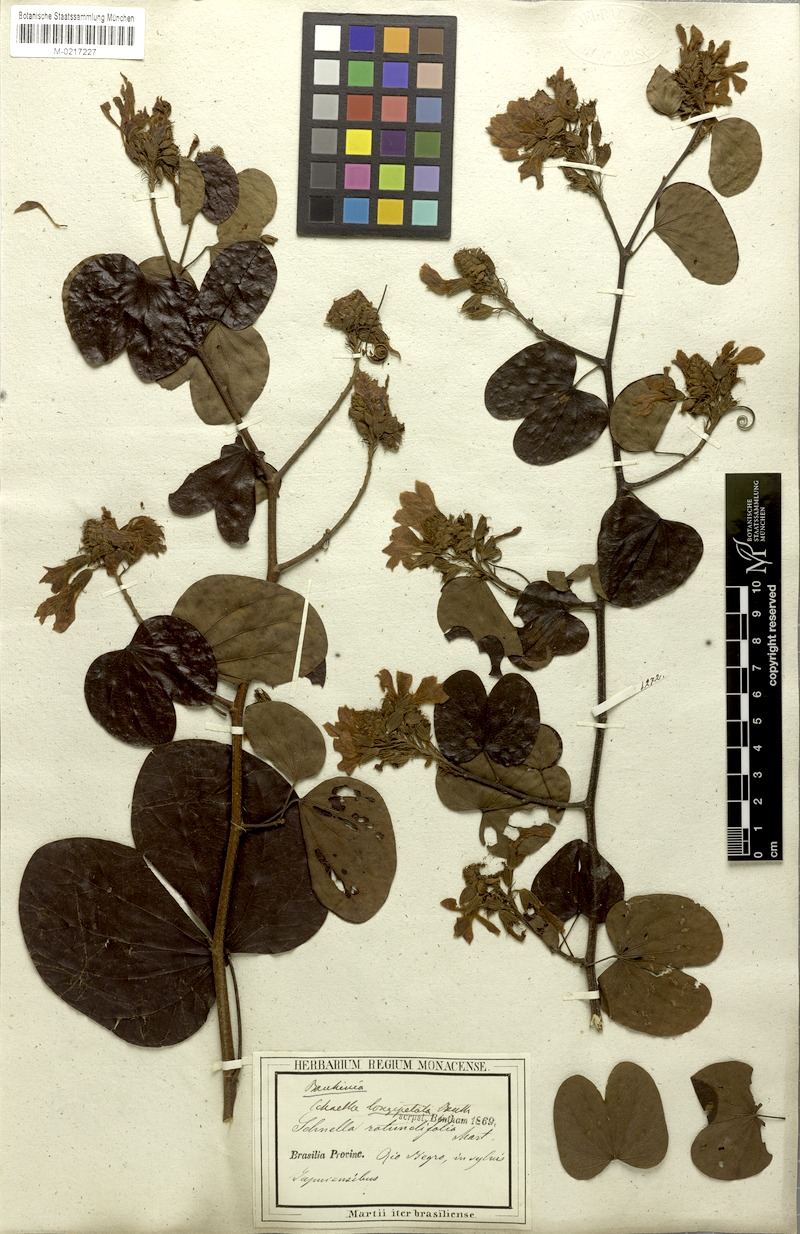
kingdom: Plantae
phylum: Tracheophyta
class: Magnoliopsida
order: Fabales
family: Fabaceae
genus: Schnella
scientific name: Schnella
